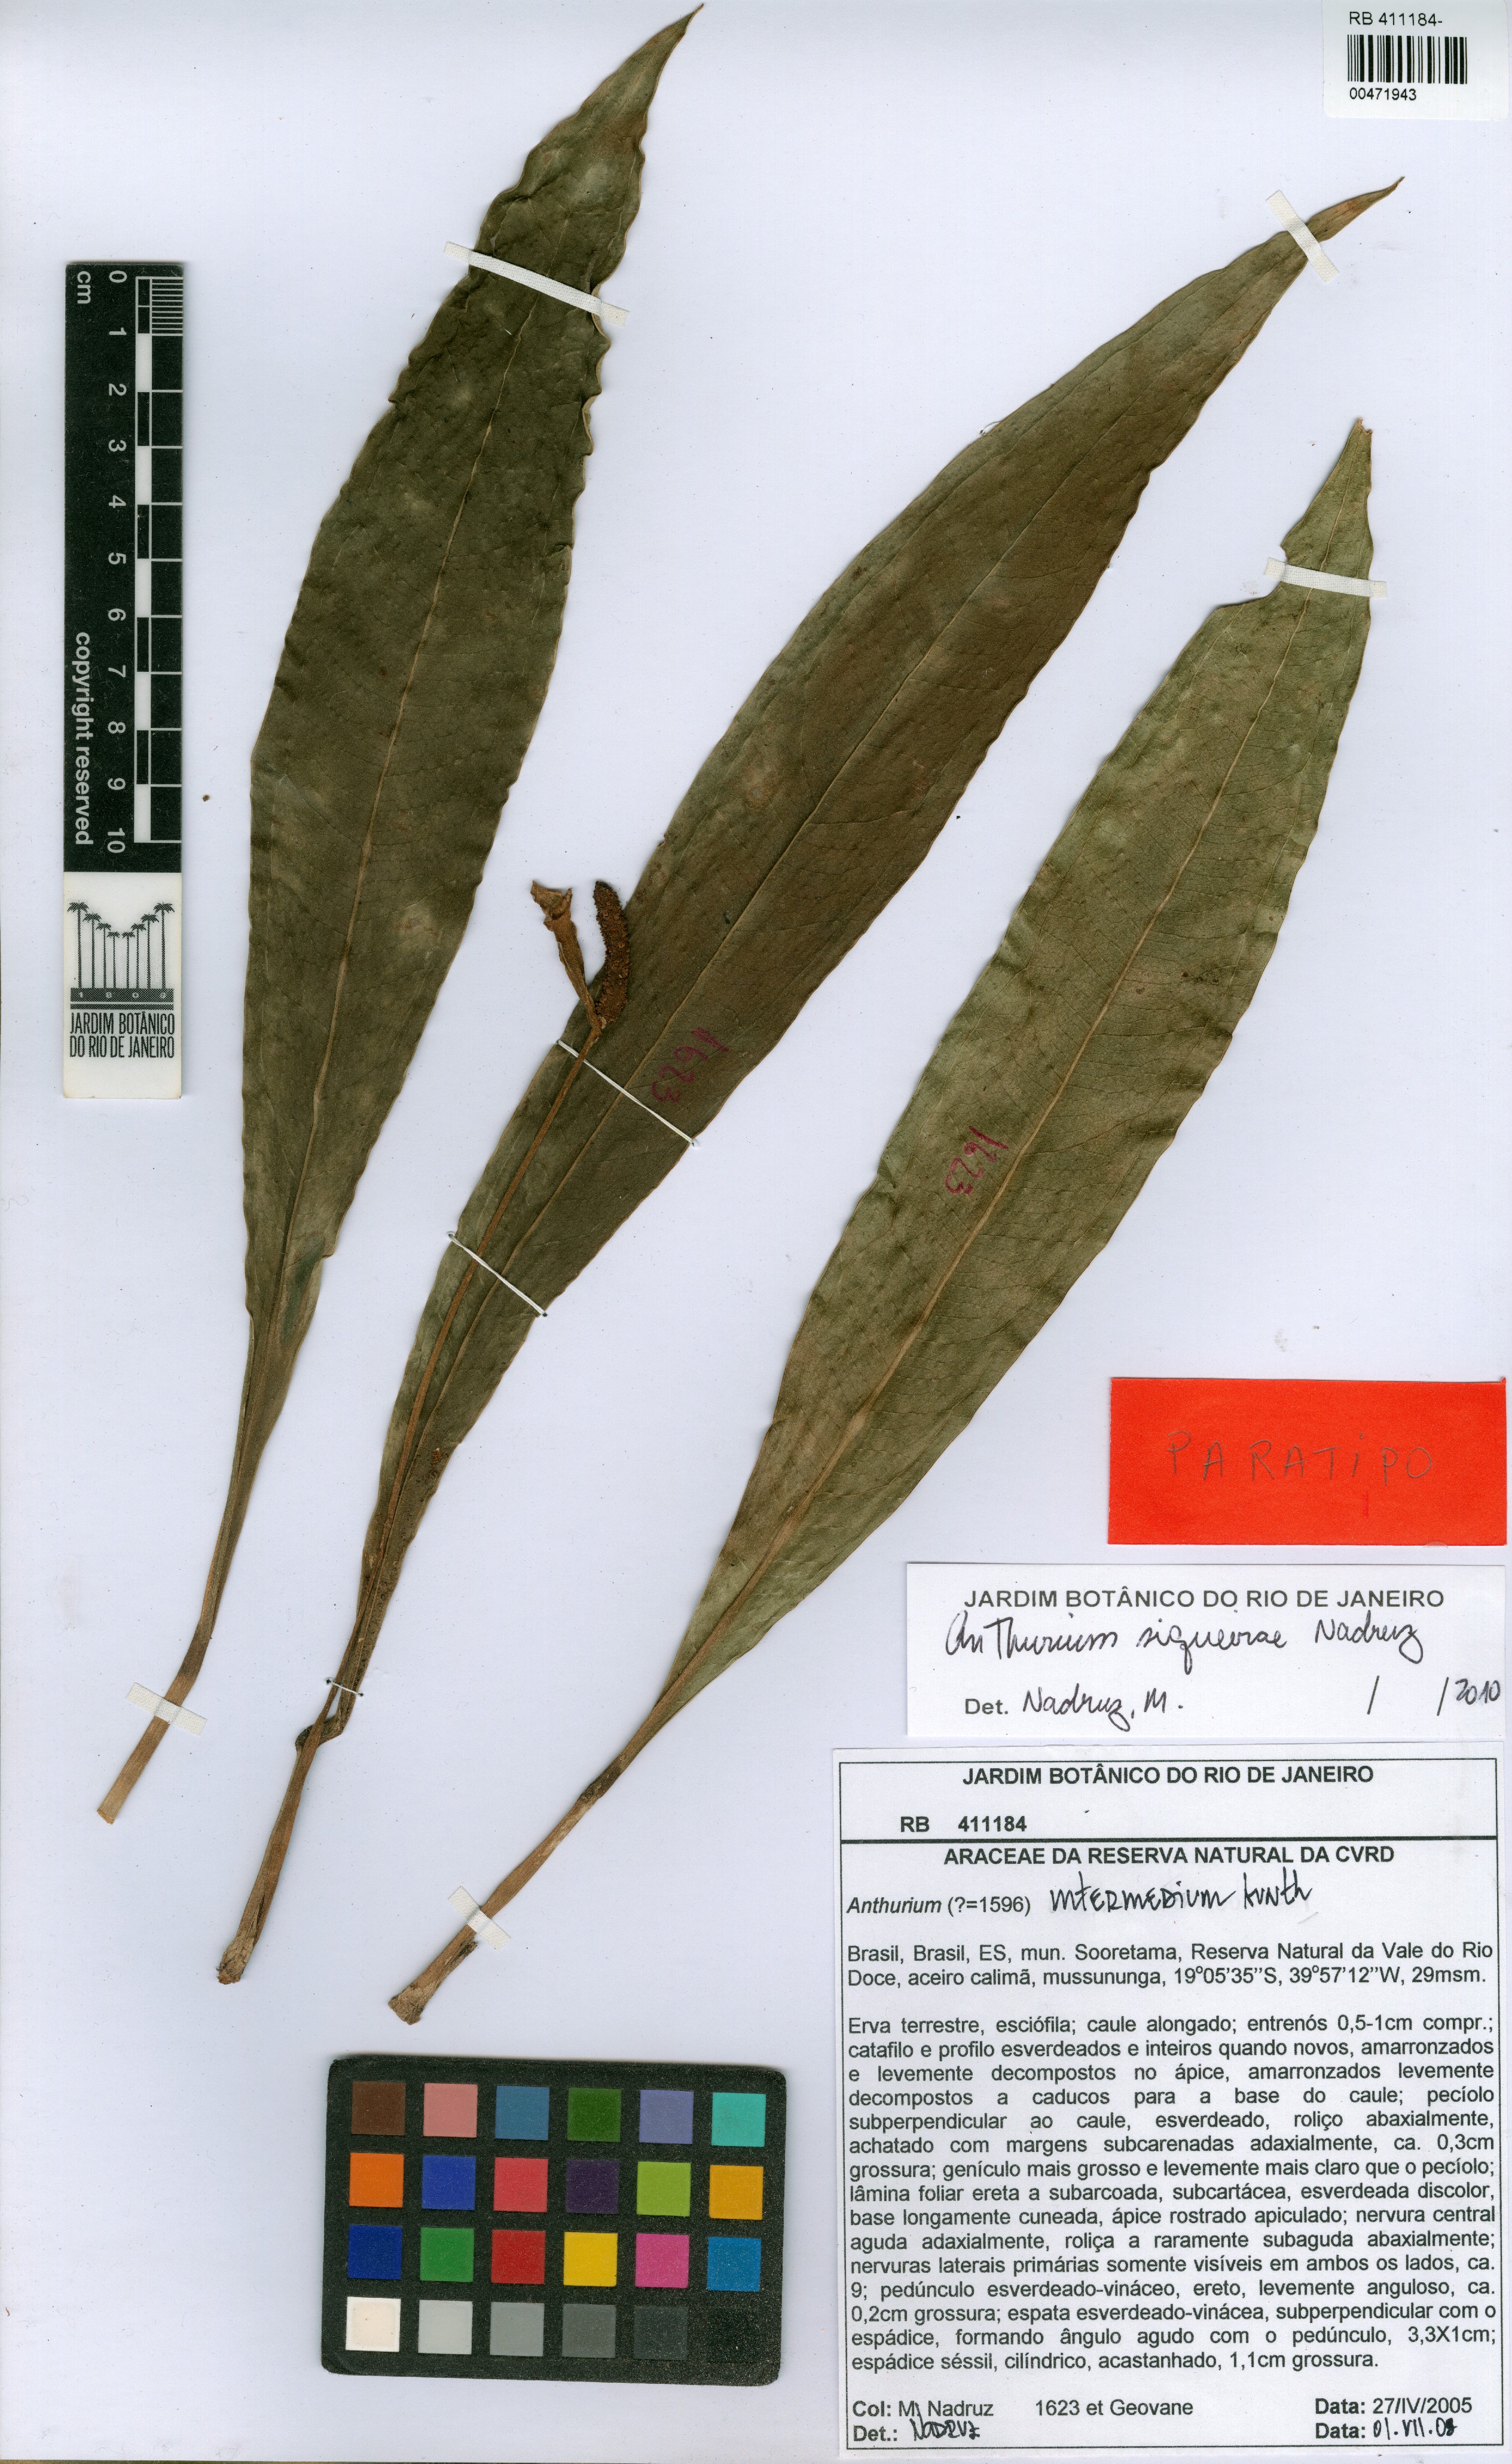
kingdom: Plantae
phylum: Tracheophyta
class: Liliopsida
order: Alismatales
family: Araceae
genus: Anthurium
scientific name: Anthurium siqueirae
